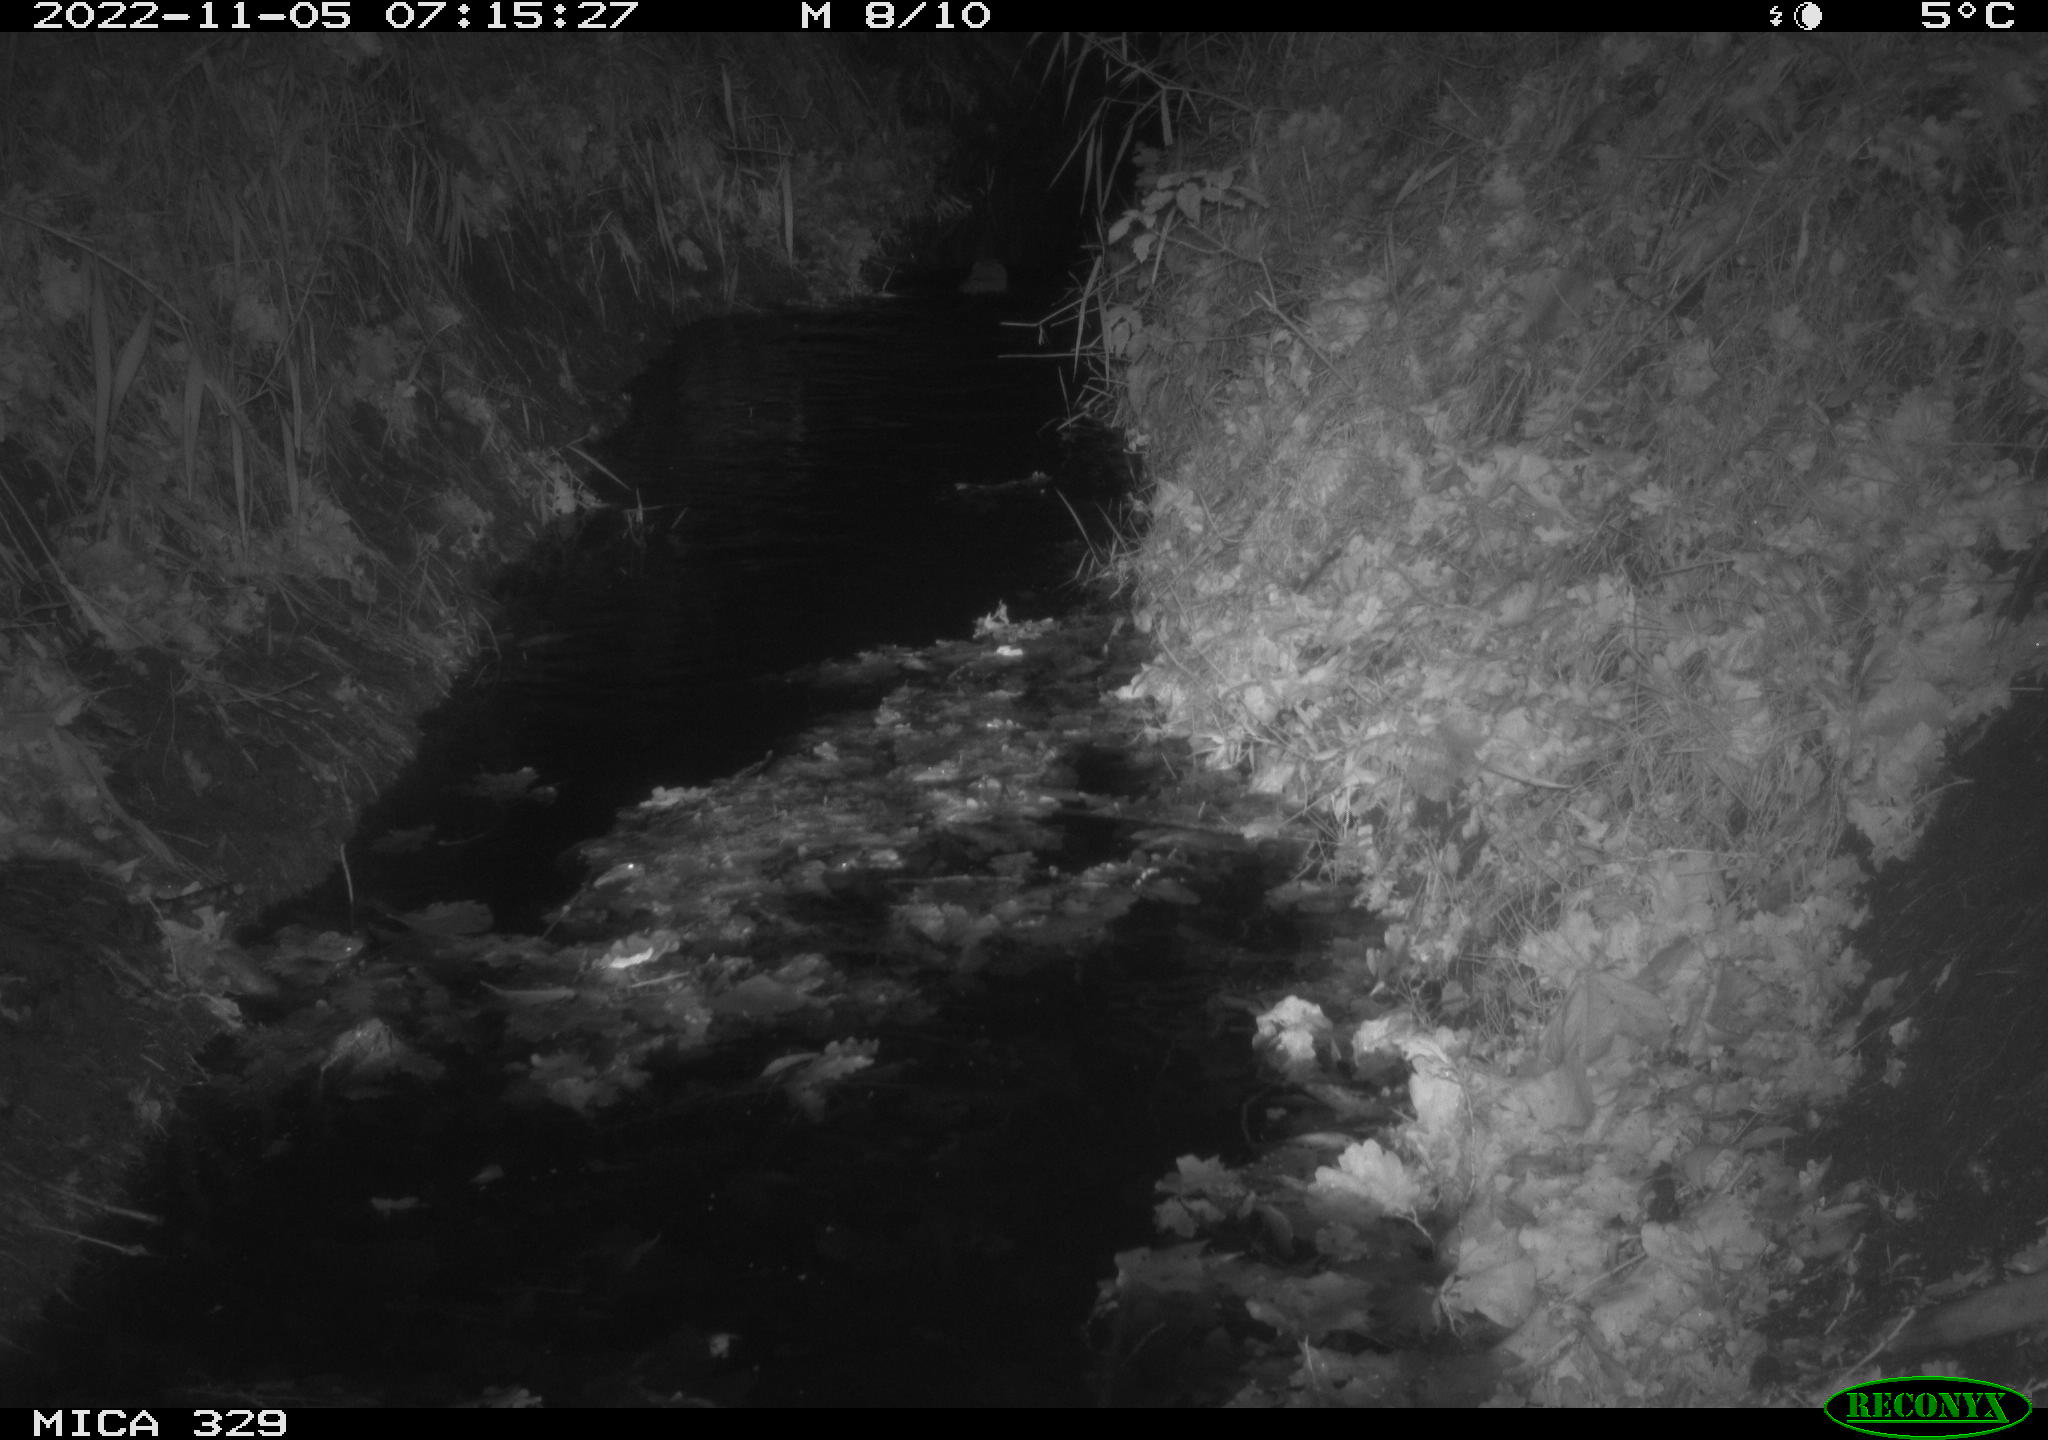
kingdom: Animalia
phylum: Chordata
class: Mammalia
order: Rodentia
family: Cricetidae
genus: Ondatra
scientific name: Ondatra zibethicus
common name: Muskrat
